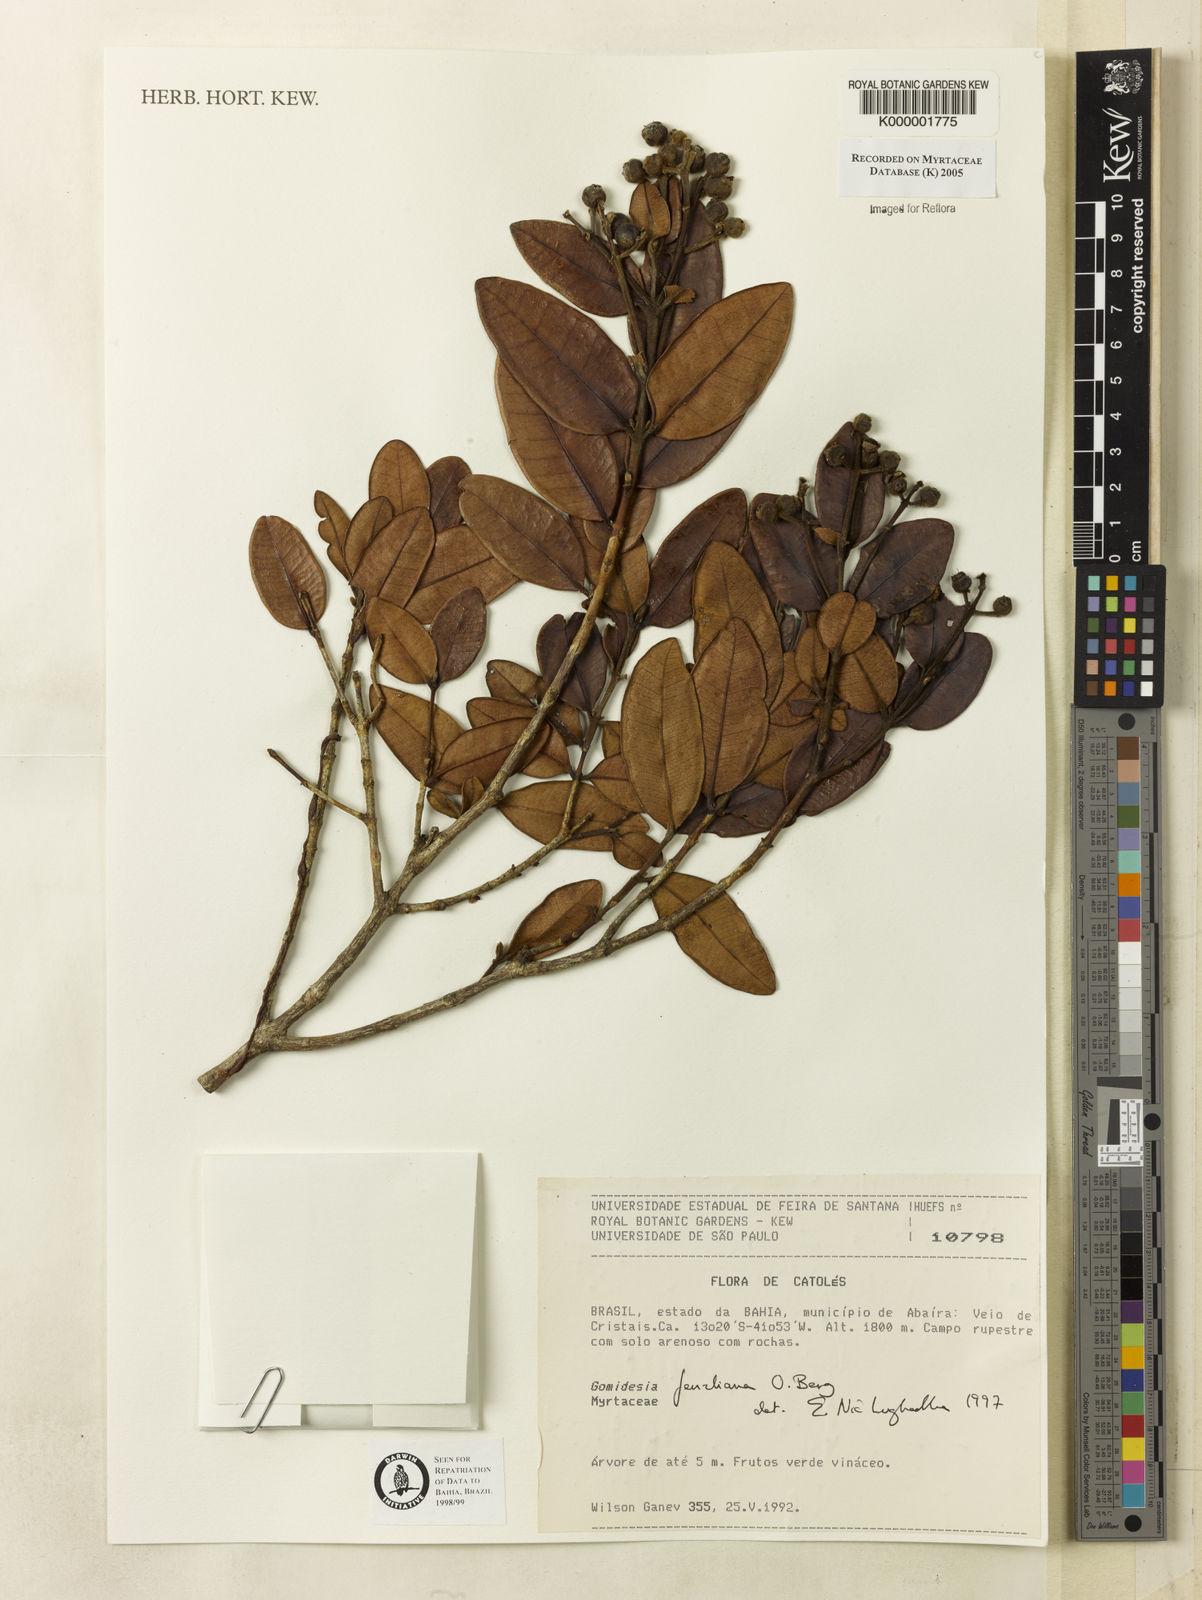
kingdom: Plantae
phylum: Tracheophyta
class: Magnoliopsida
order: Myrtales
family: Myrtaceae
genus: Myrcia
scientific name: Myrcia ilheosensis
